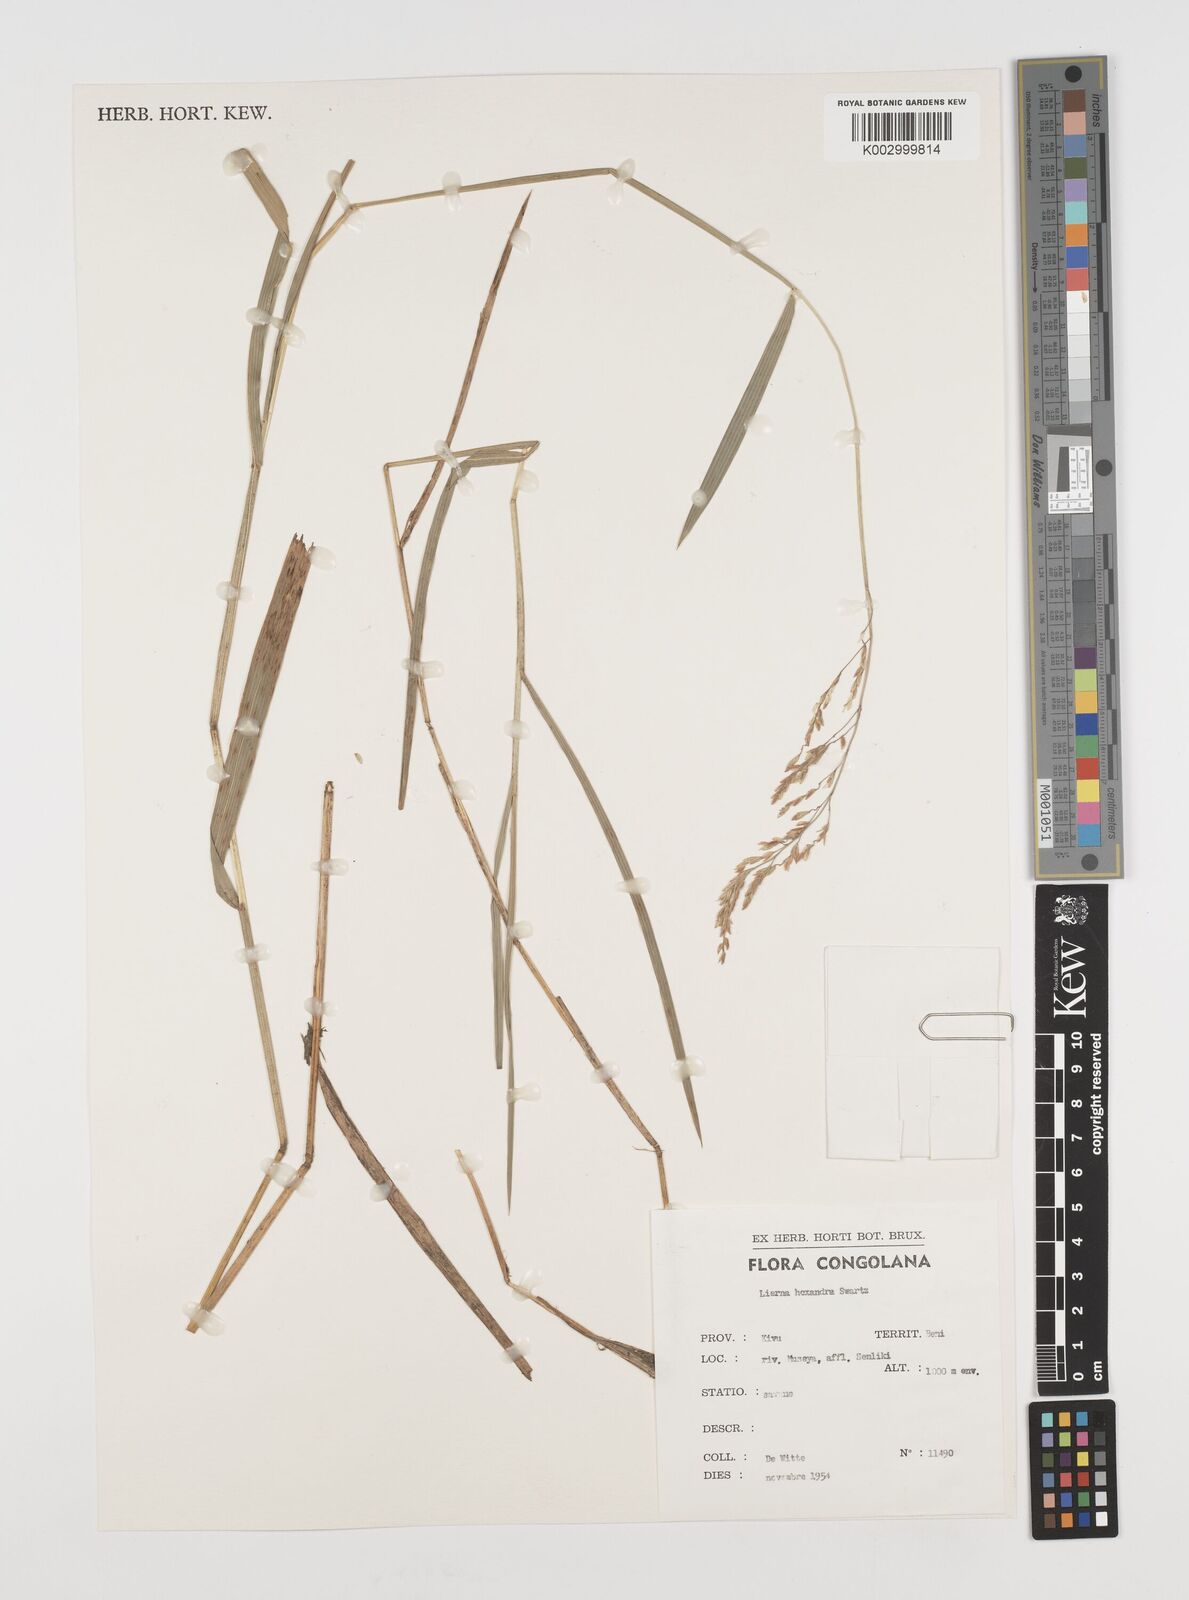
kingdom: Plantae
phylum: Tracheophyta
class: Liliopsida
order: Poales
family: Poaceae
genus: Leersia
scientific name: Leersia hexandra
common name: Southern cut grass
